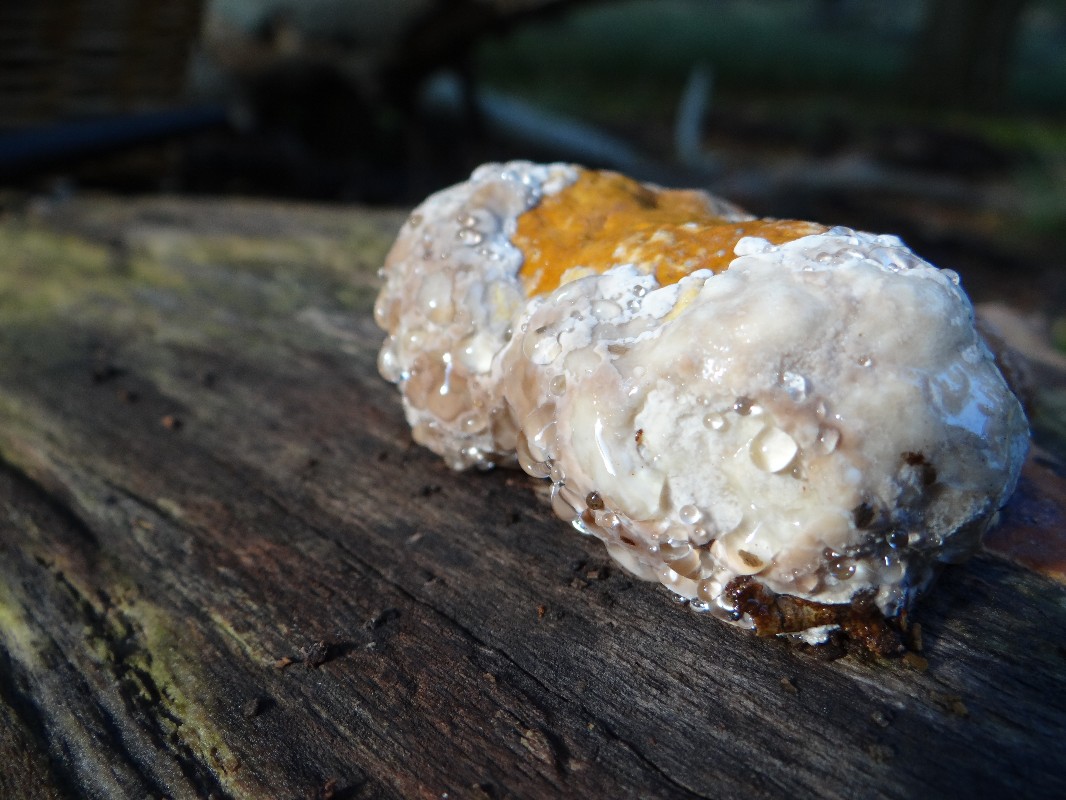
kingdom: Fungi
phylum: Basidiomycota
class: Agaricomycetes
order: Polyporales
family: Fomitopsidaceae
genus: Fomitopsis
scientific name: Fomitopsis pinicola
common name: randbæltet hovporesvamp
